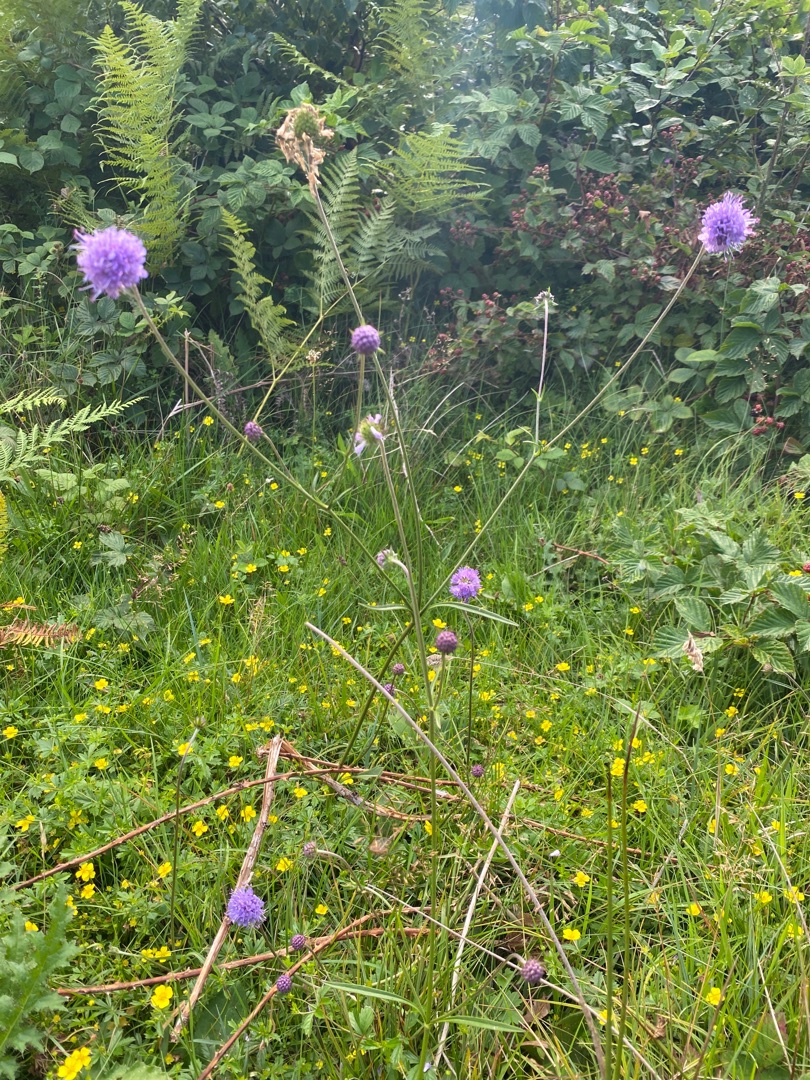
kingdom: Plantae
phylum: Tracheophyta
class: Magnoliopsida
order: Dipsacales
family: Caprifoliaceae
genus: Succisa
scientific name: Succisa pratensis
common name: Djævelsbid
